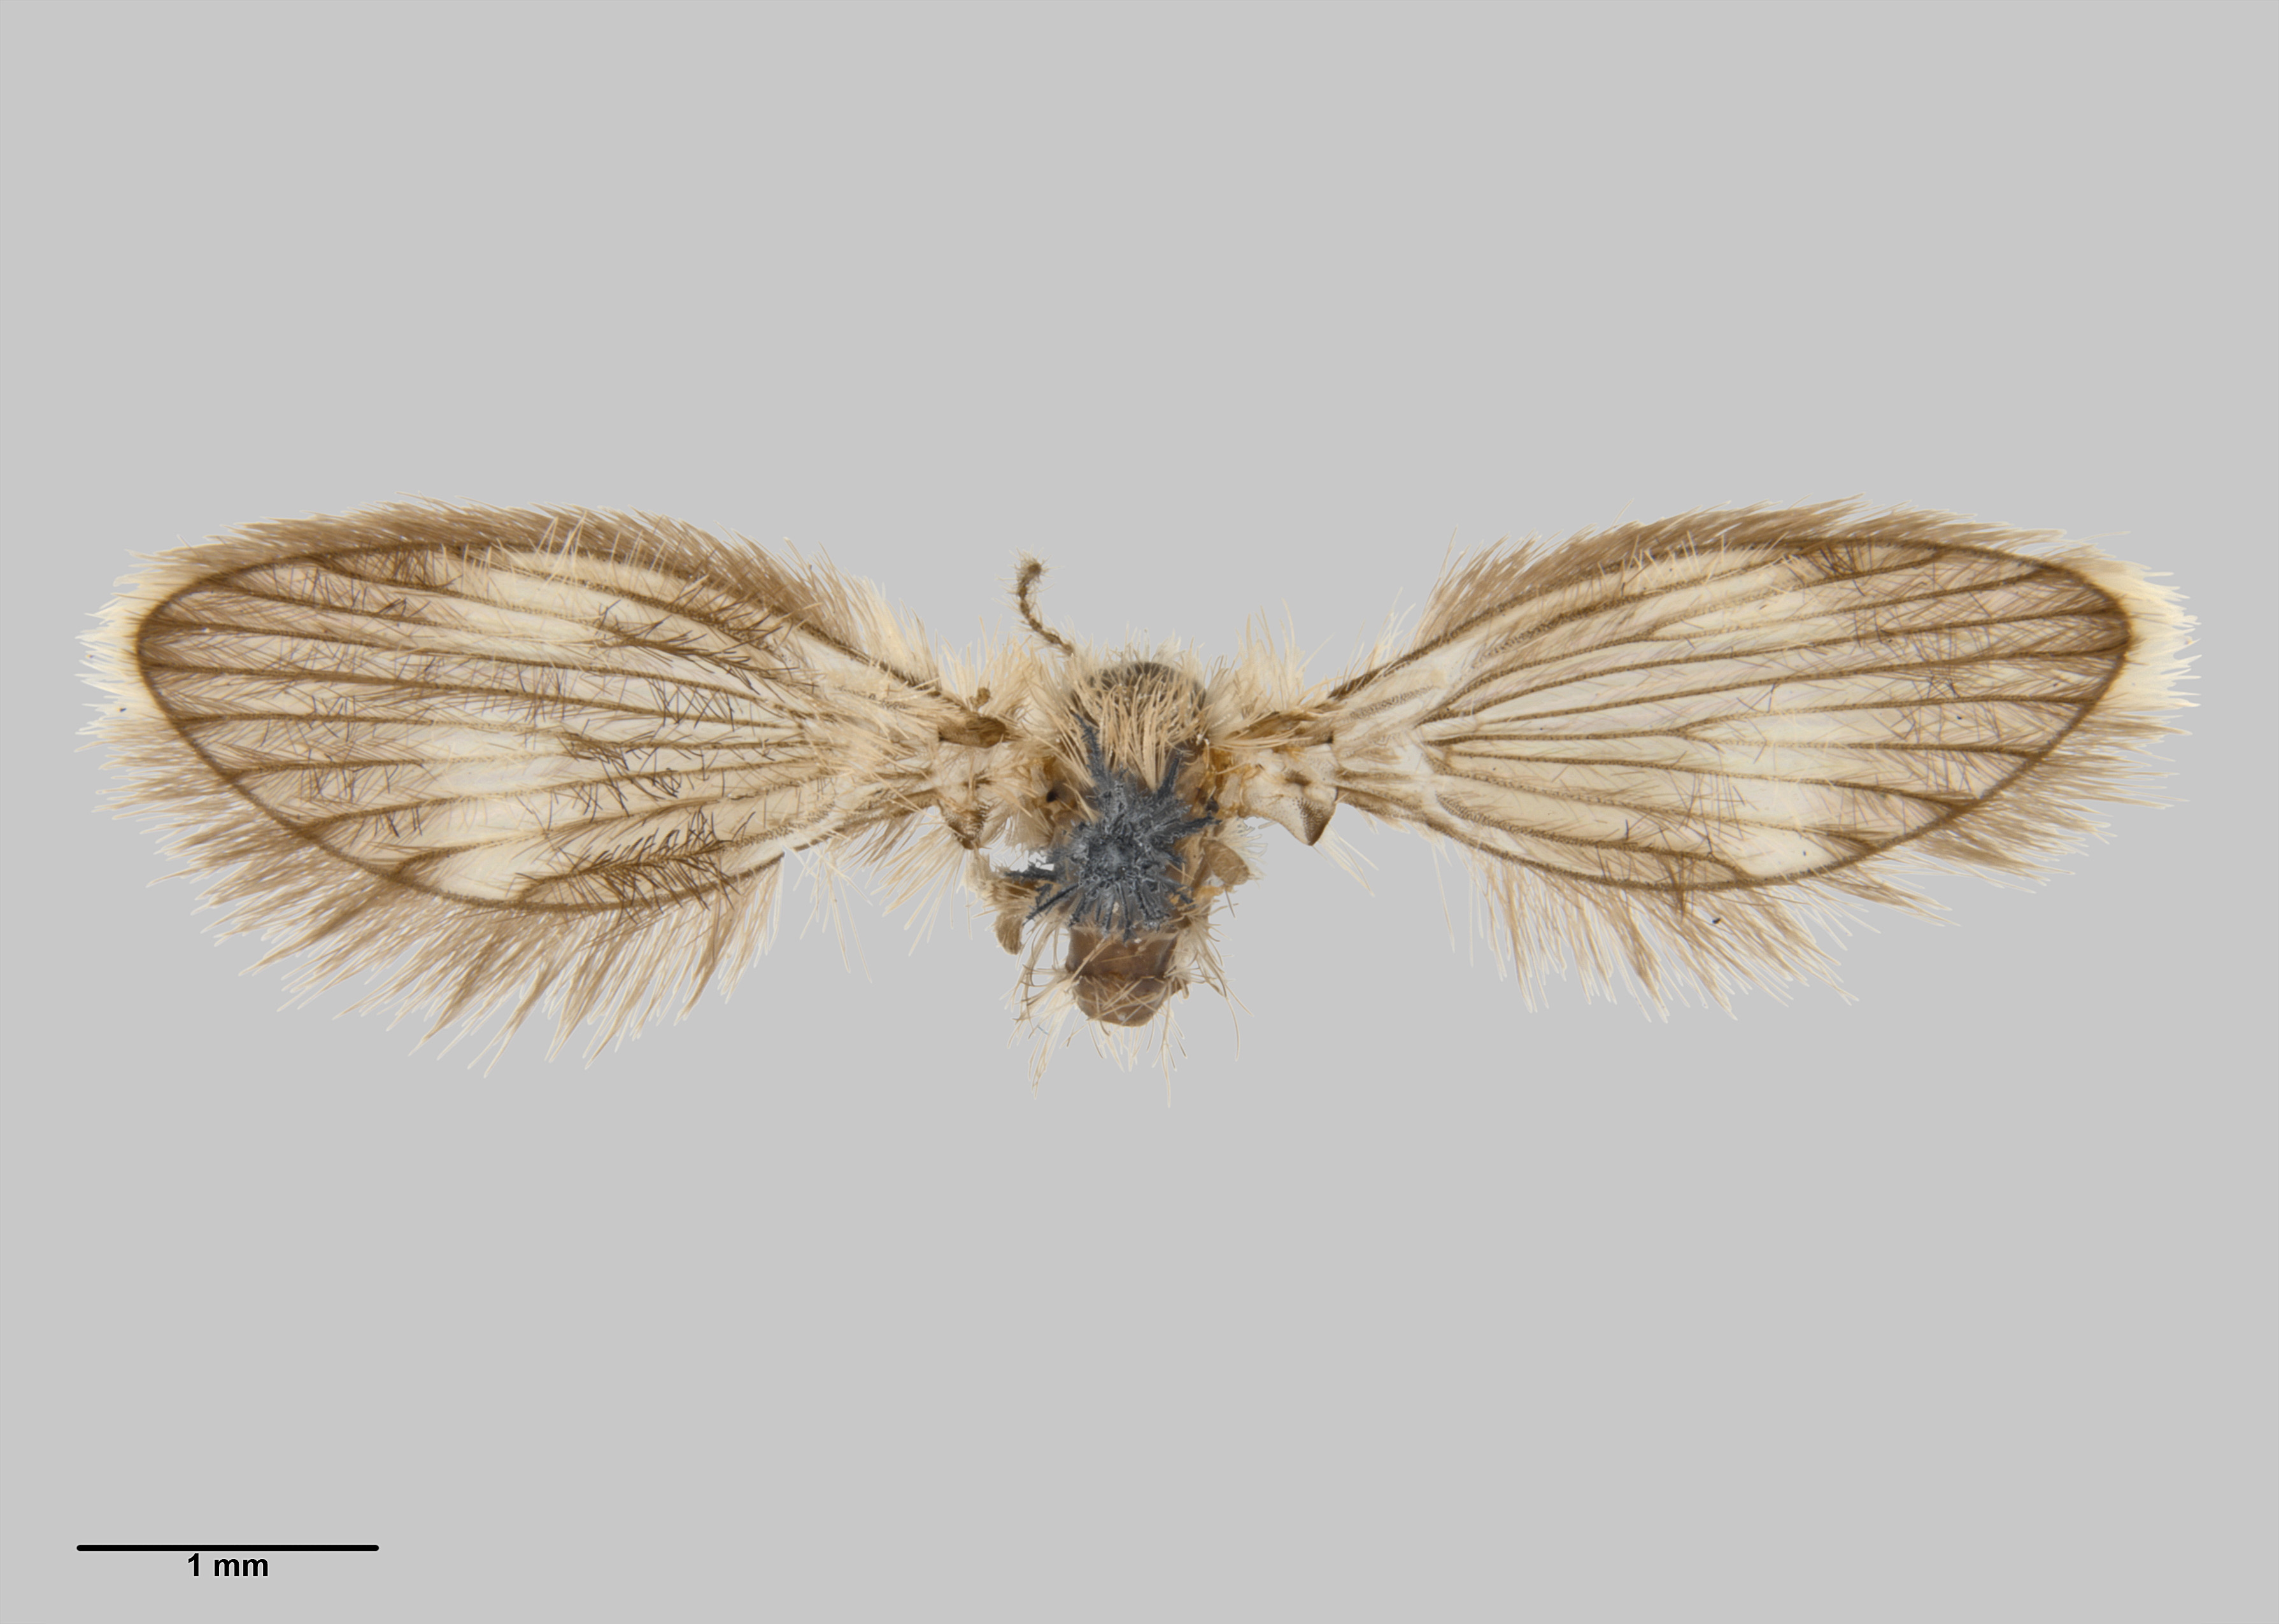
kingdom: Animalia
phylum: Arthropoda
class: Insecta
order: Diptera
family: Psychodidae
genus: Didicrum
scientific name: Didicrum clarkei
